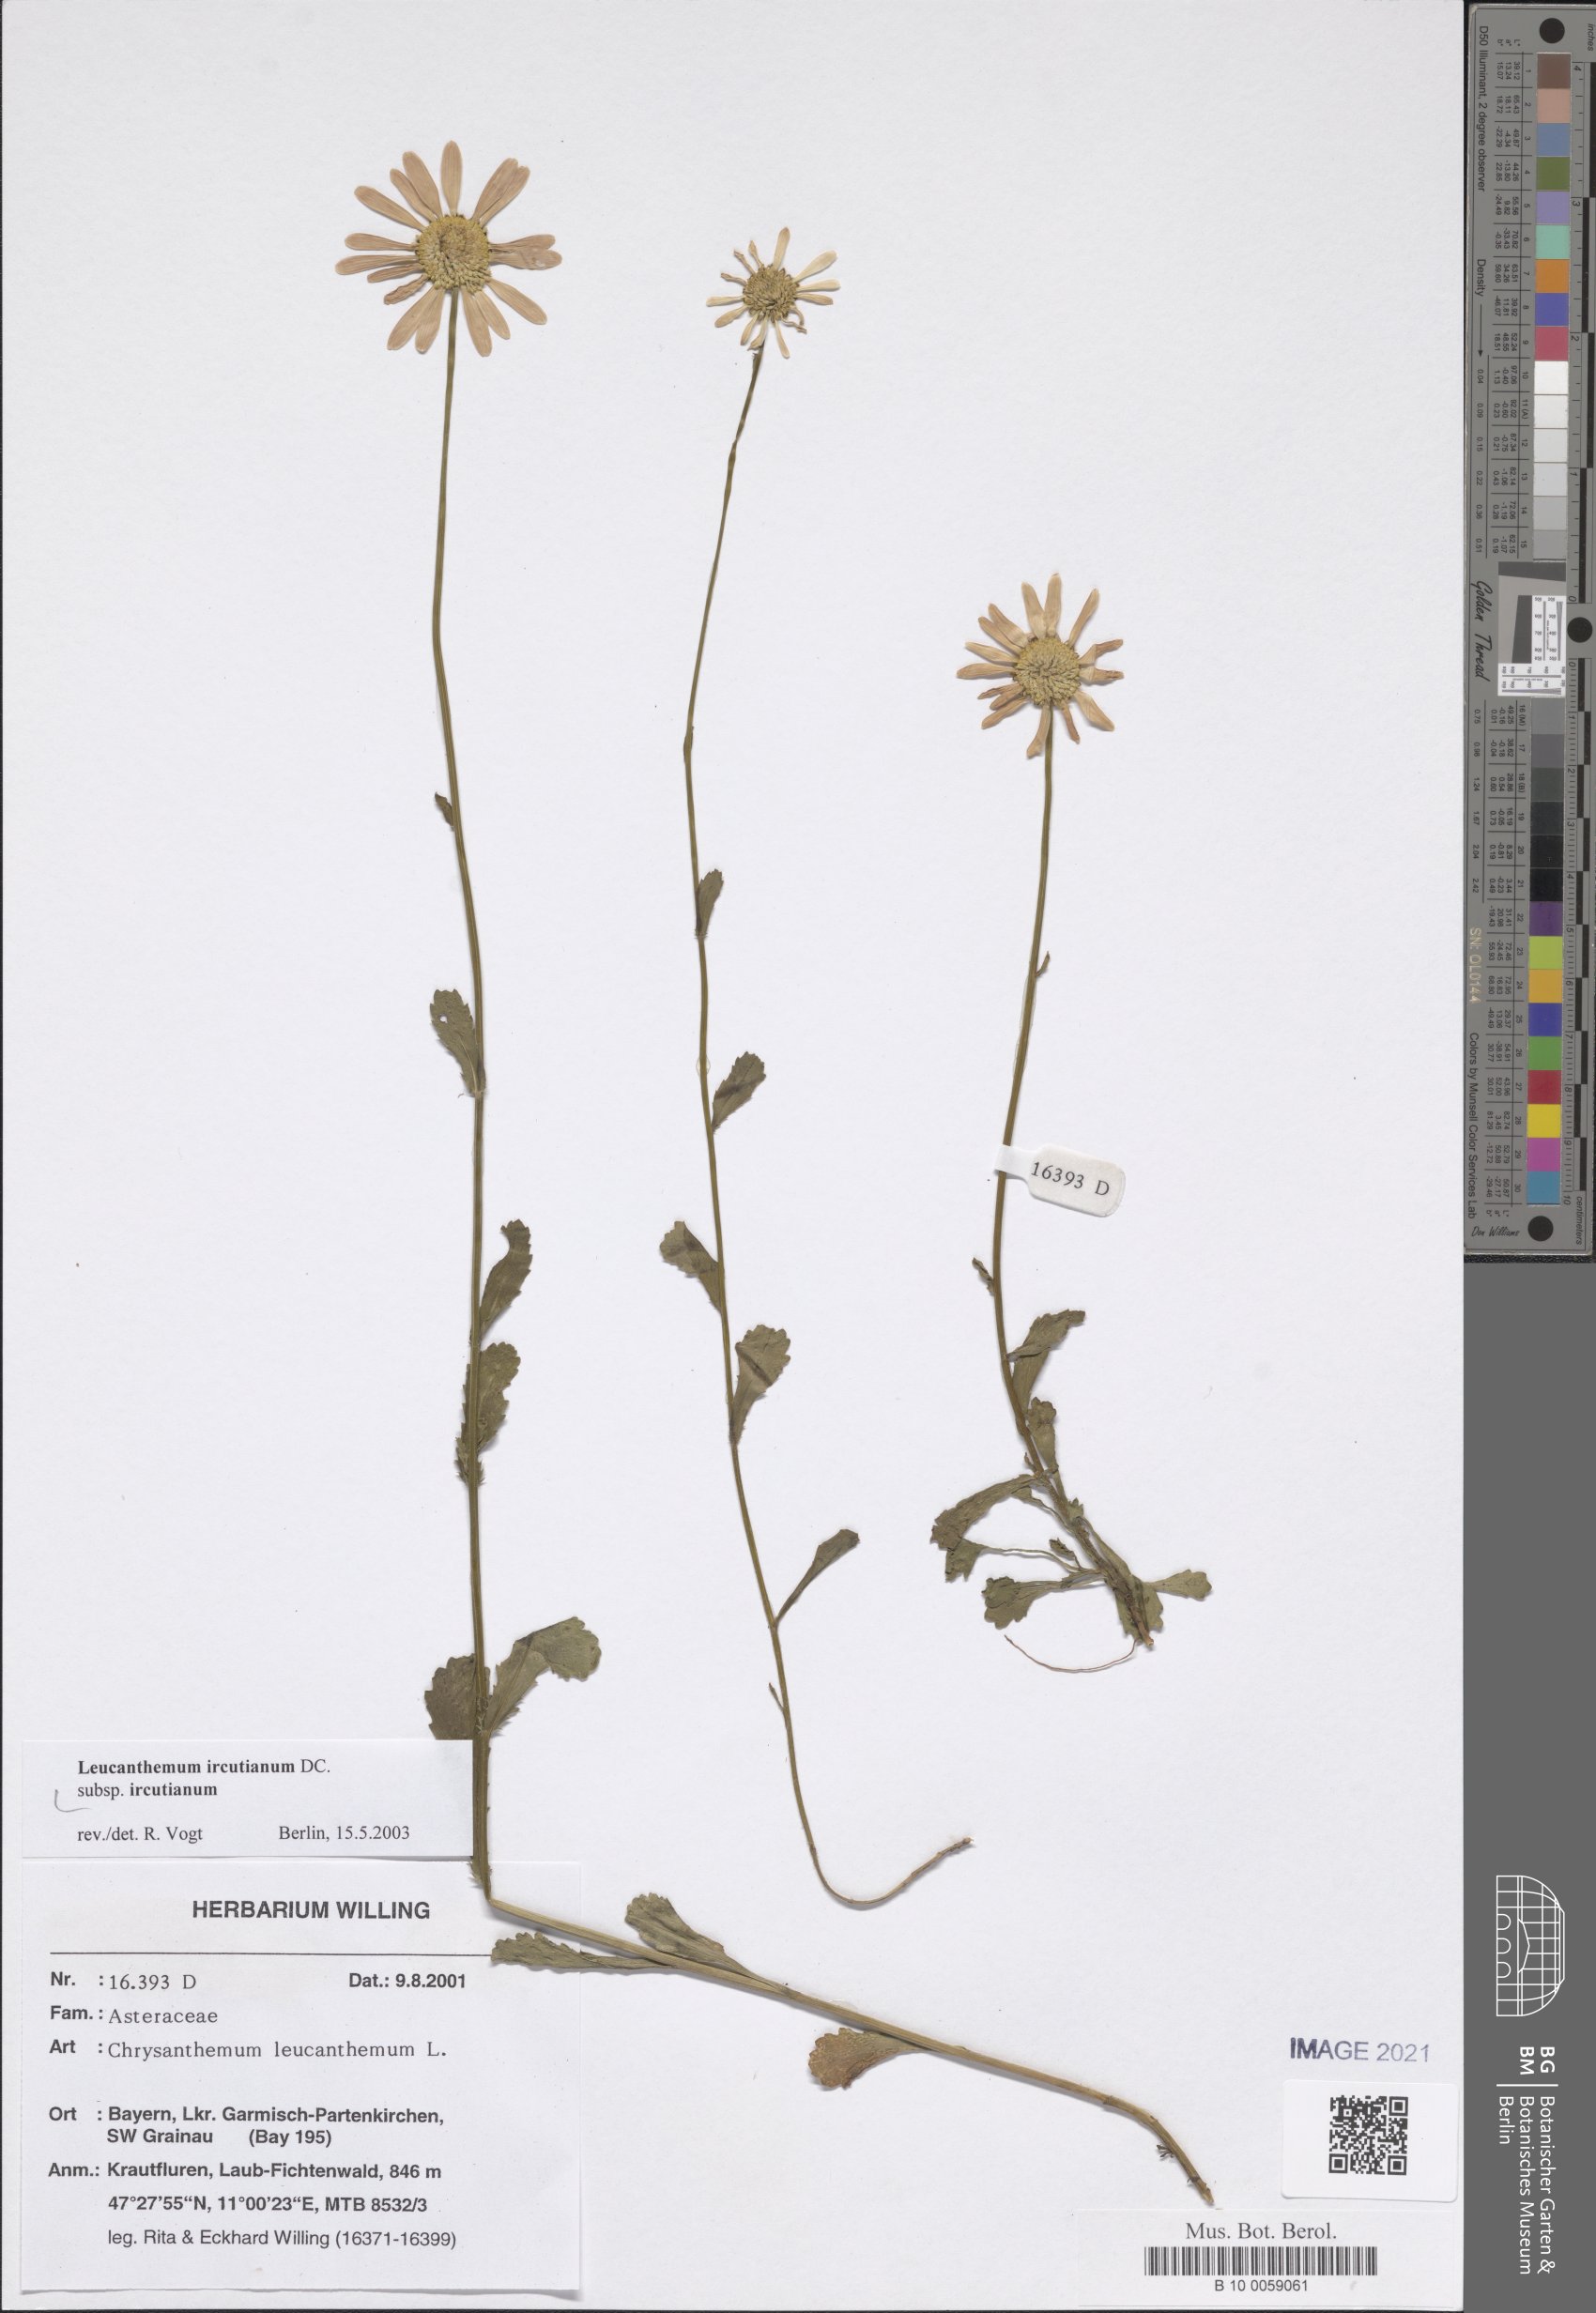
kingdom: Plantae
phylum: Tracheophyta
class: Magnoliopsida
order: Asterales
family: Asteraceae
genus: Leucanthemum
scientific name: Leucanthemum ircutianum
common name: Daisy
